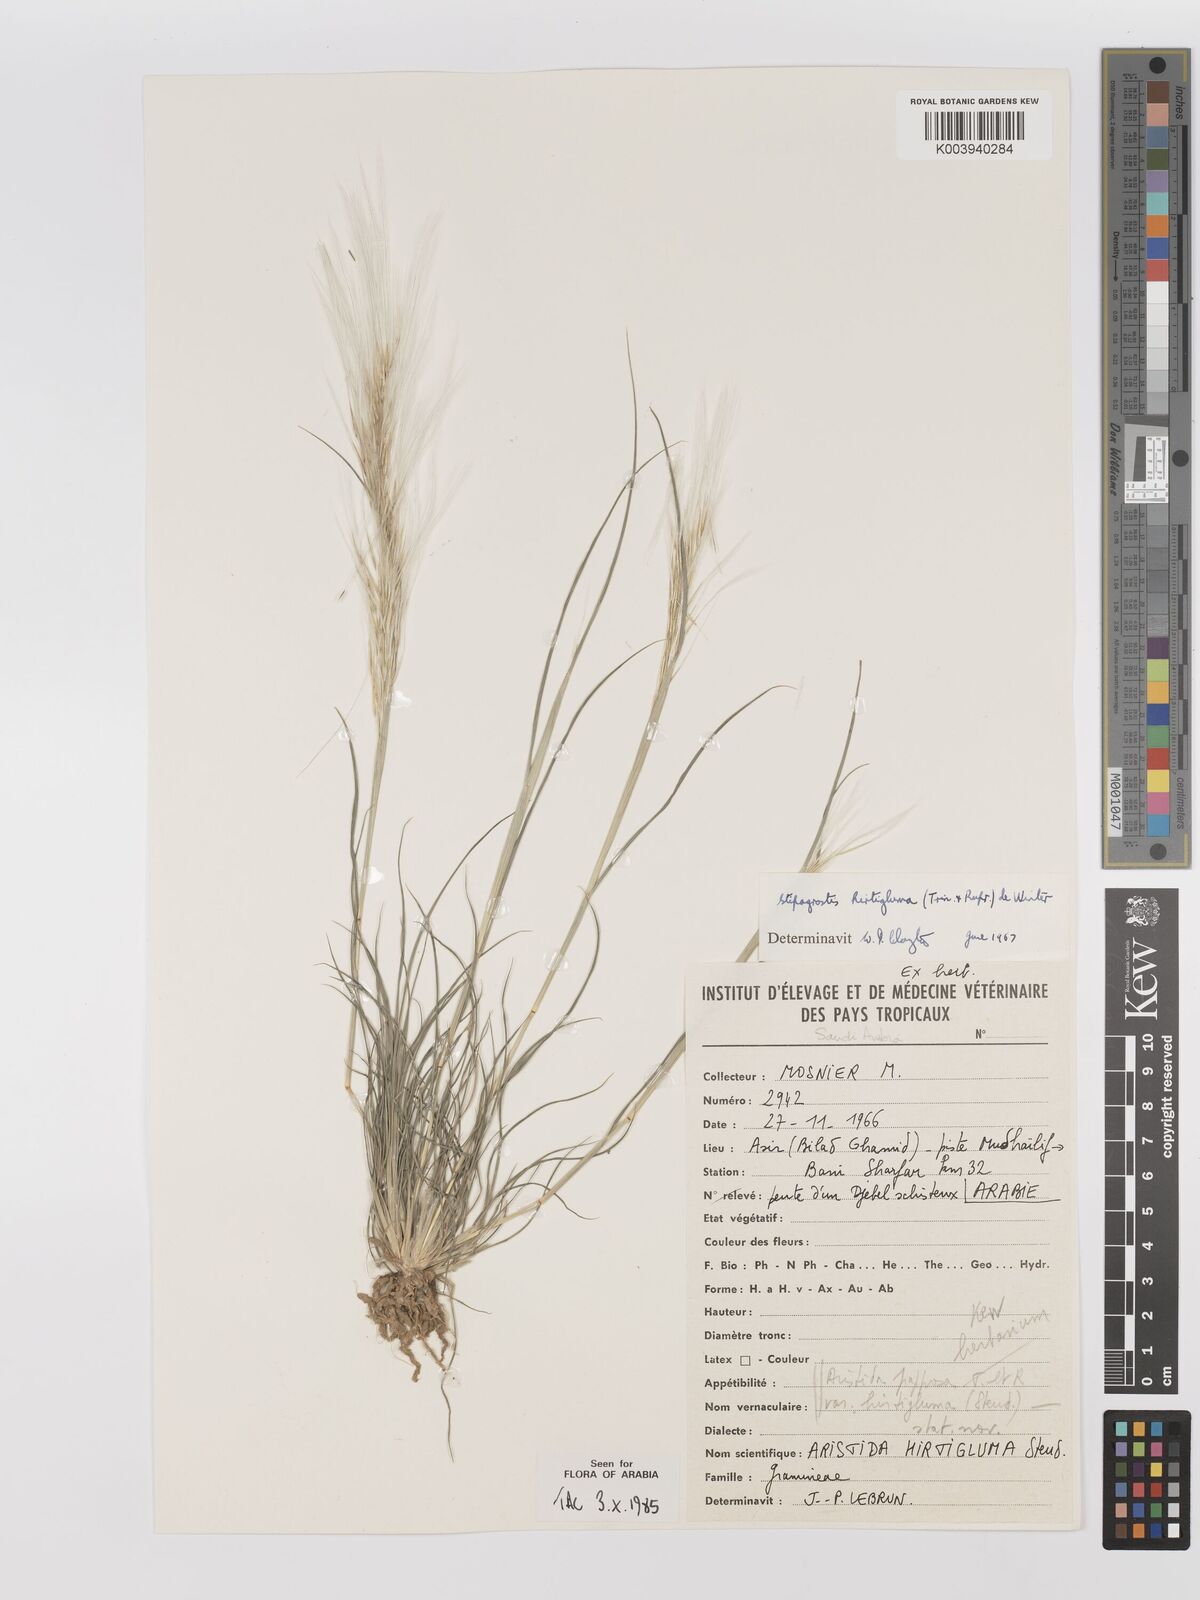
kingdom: Plantae
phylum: Tracheophyta
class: Liliopsida
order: Poales
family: Poaceae
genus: Stipagrostis
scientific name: Stipagrostis hirtigluma
